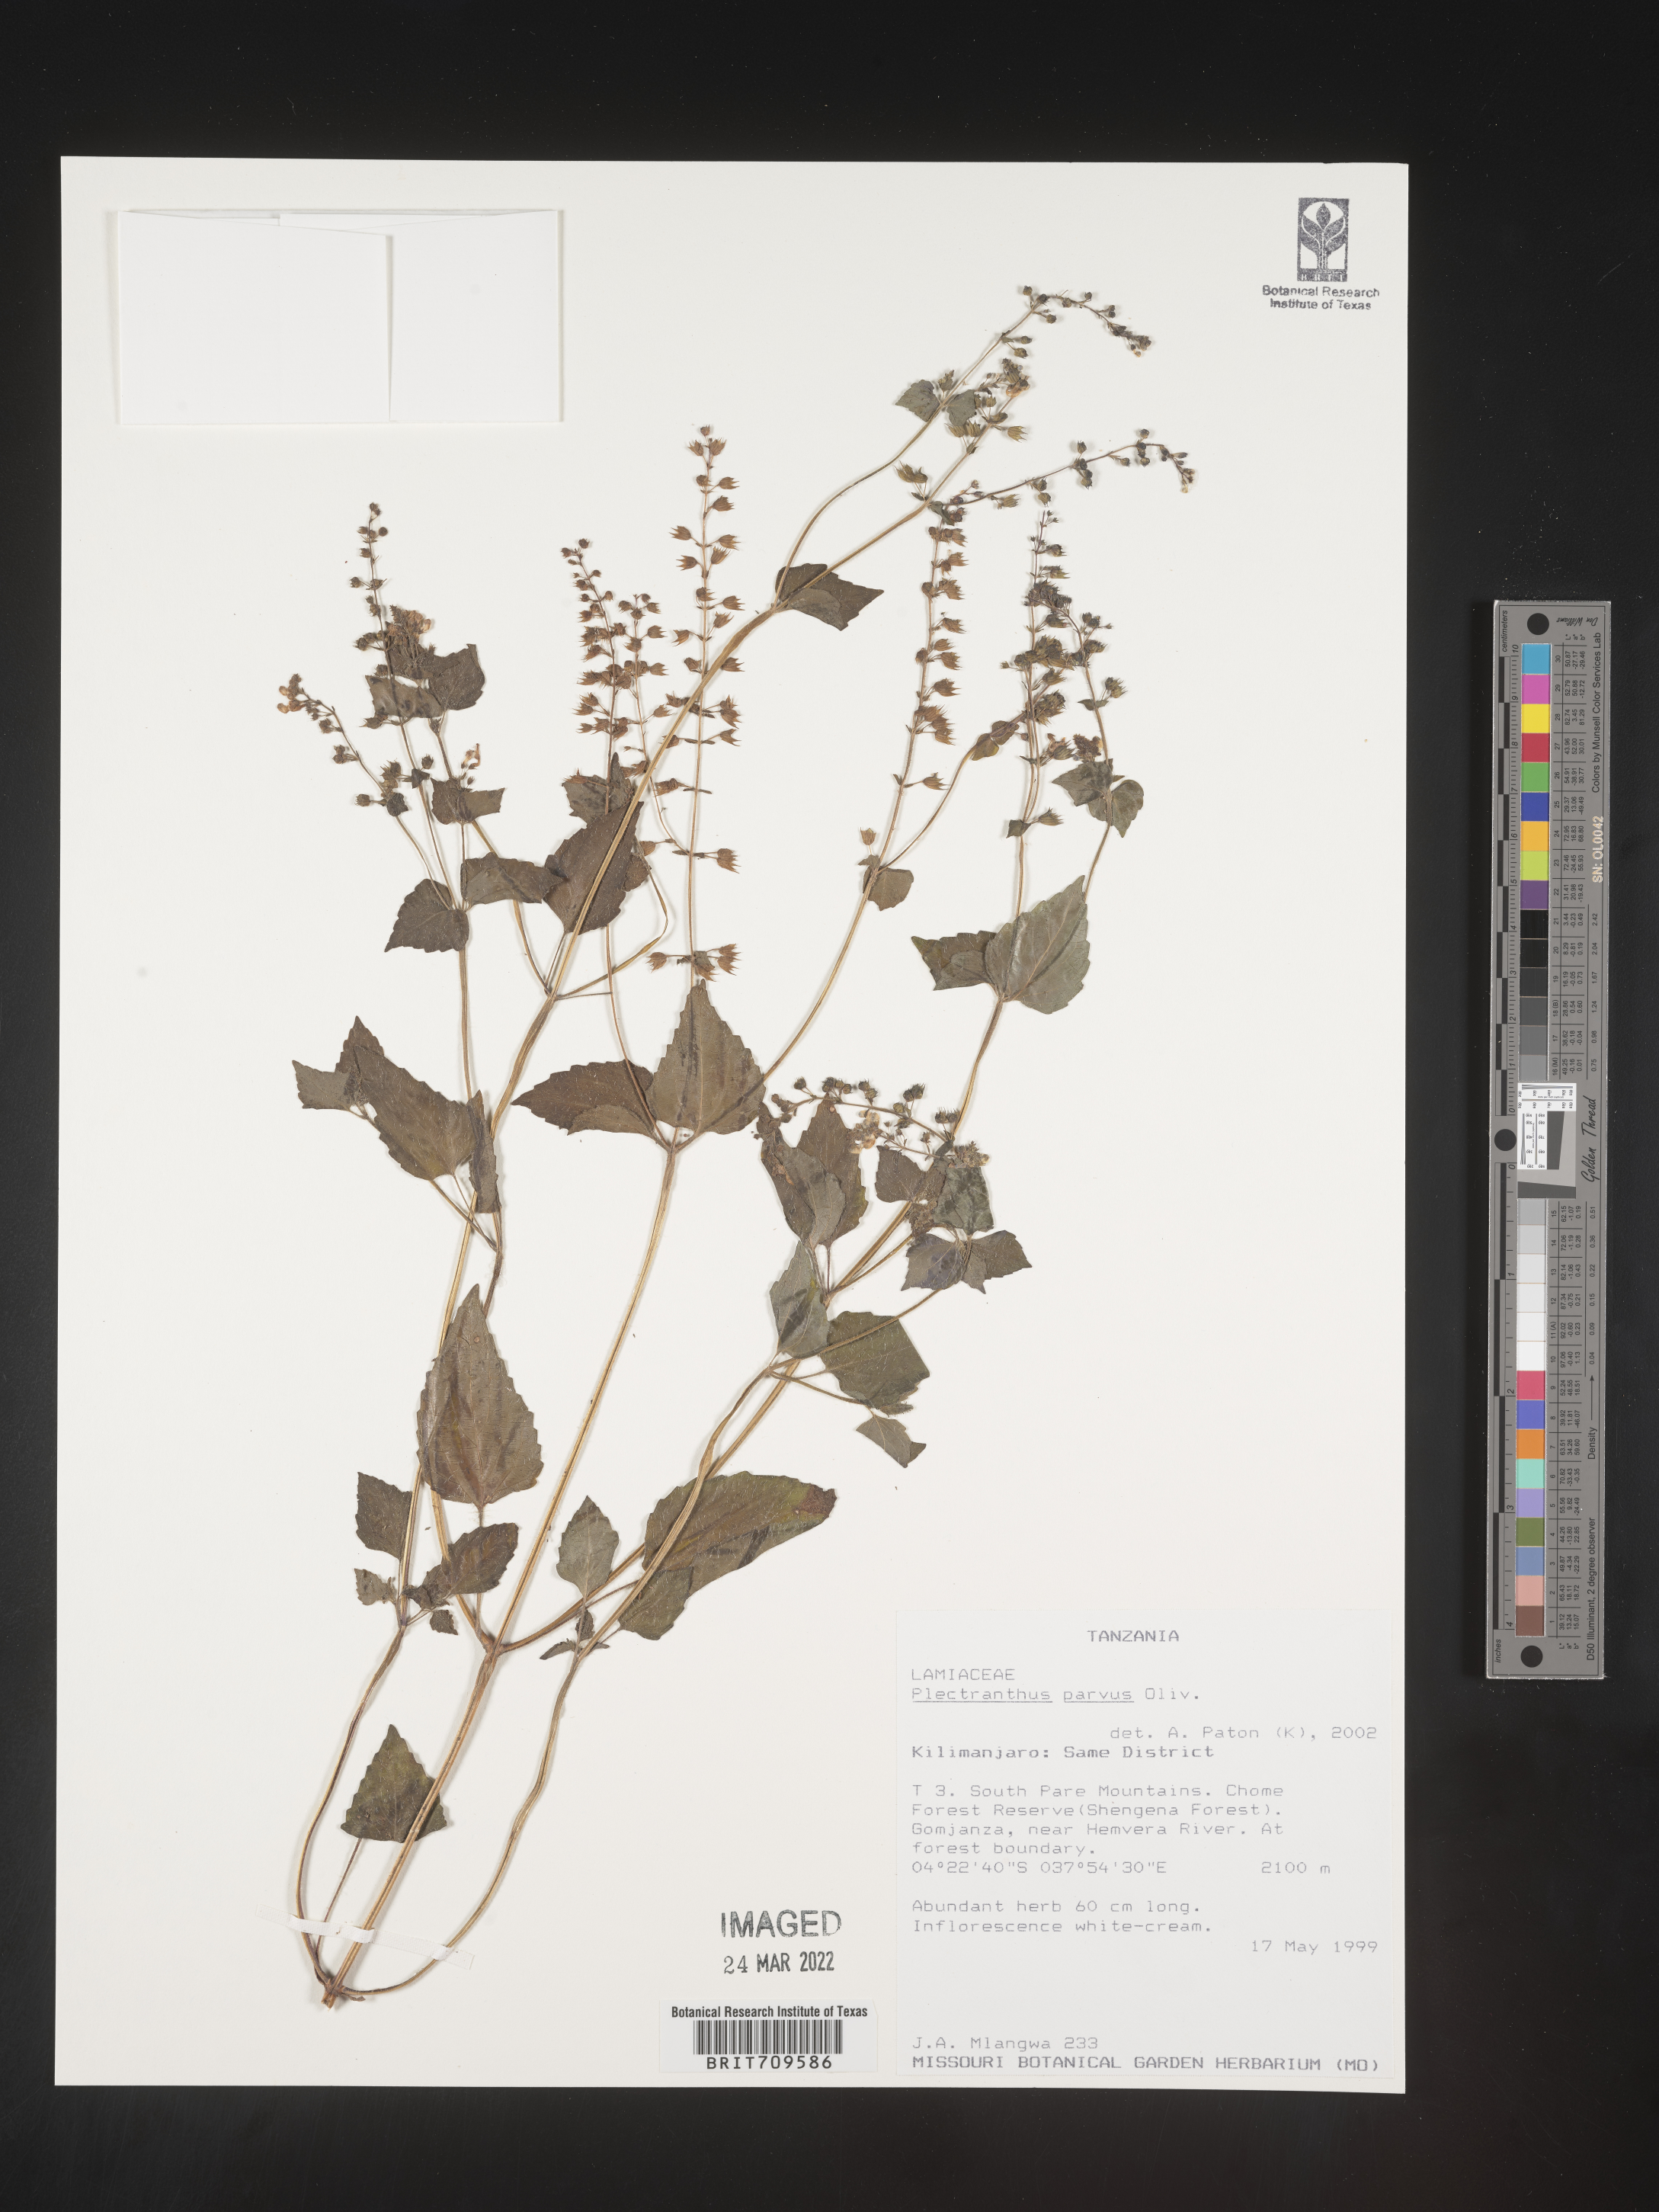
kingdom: Plantae
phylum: Tracheophyta
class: Magnoliopsida
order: Lamiales
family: Lamiaceae
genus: Plectranthus
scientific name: Plectranthus
